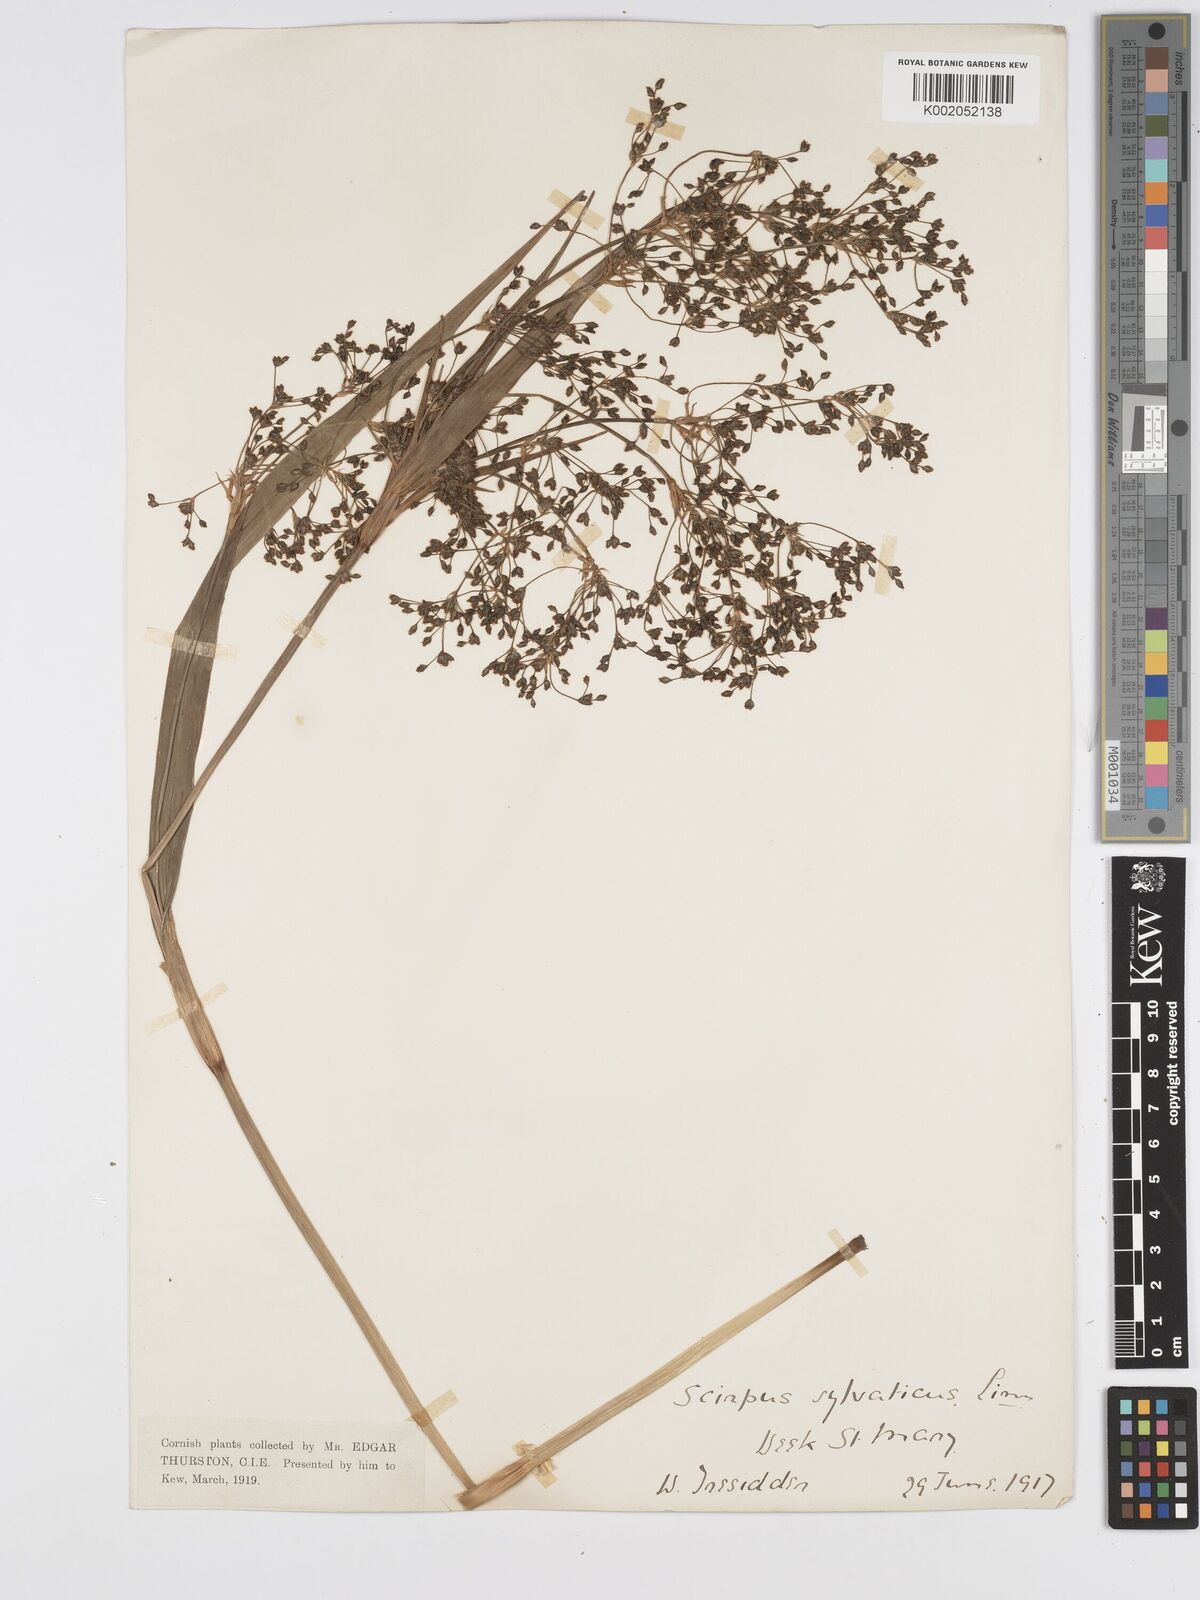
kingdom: Plantae
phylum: Tracheophyta
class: Liliopsida
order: Poales
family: Cyperaceae
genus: Scirpus
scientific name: Scirpus sylvaticus
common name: Wood club-rush
